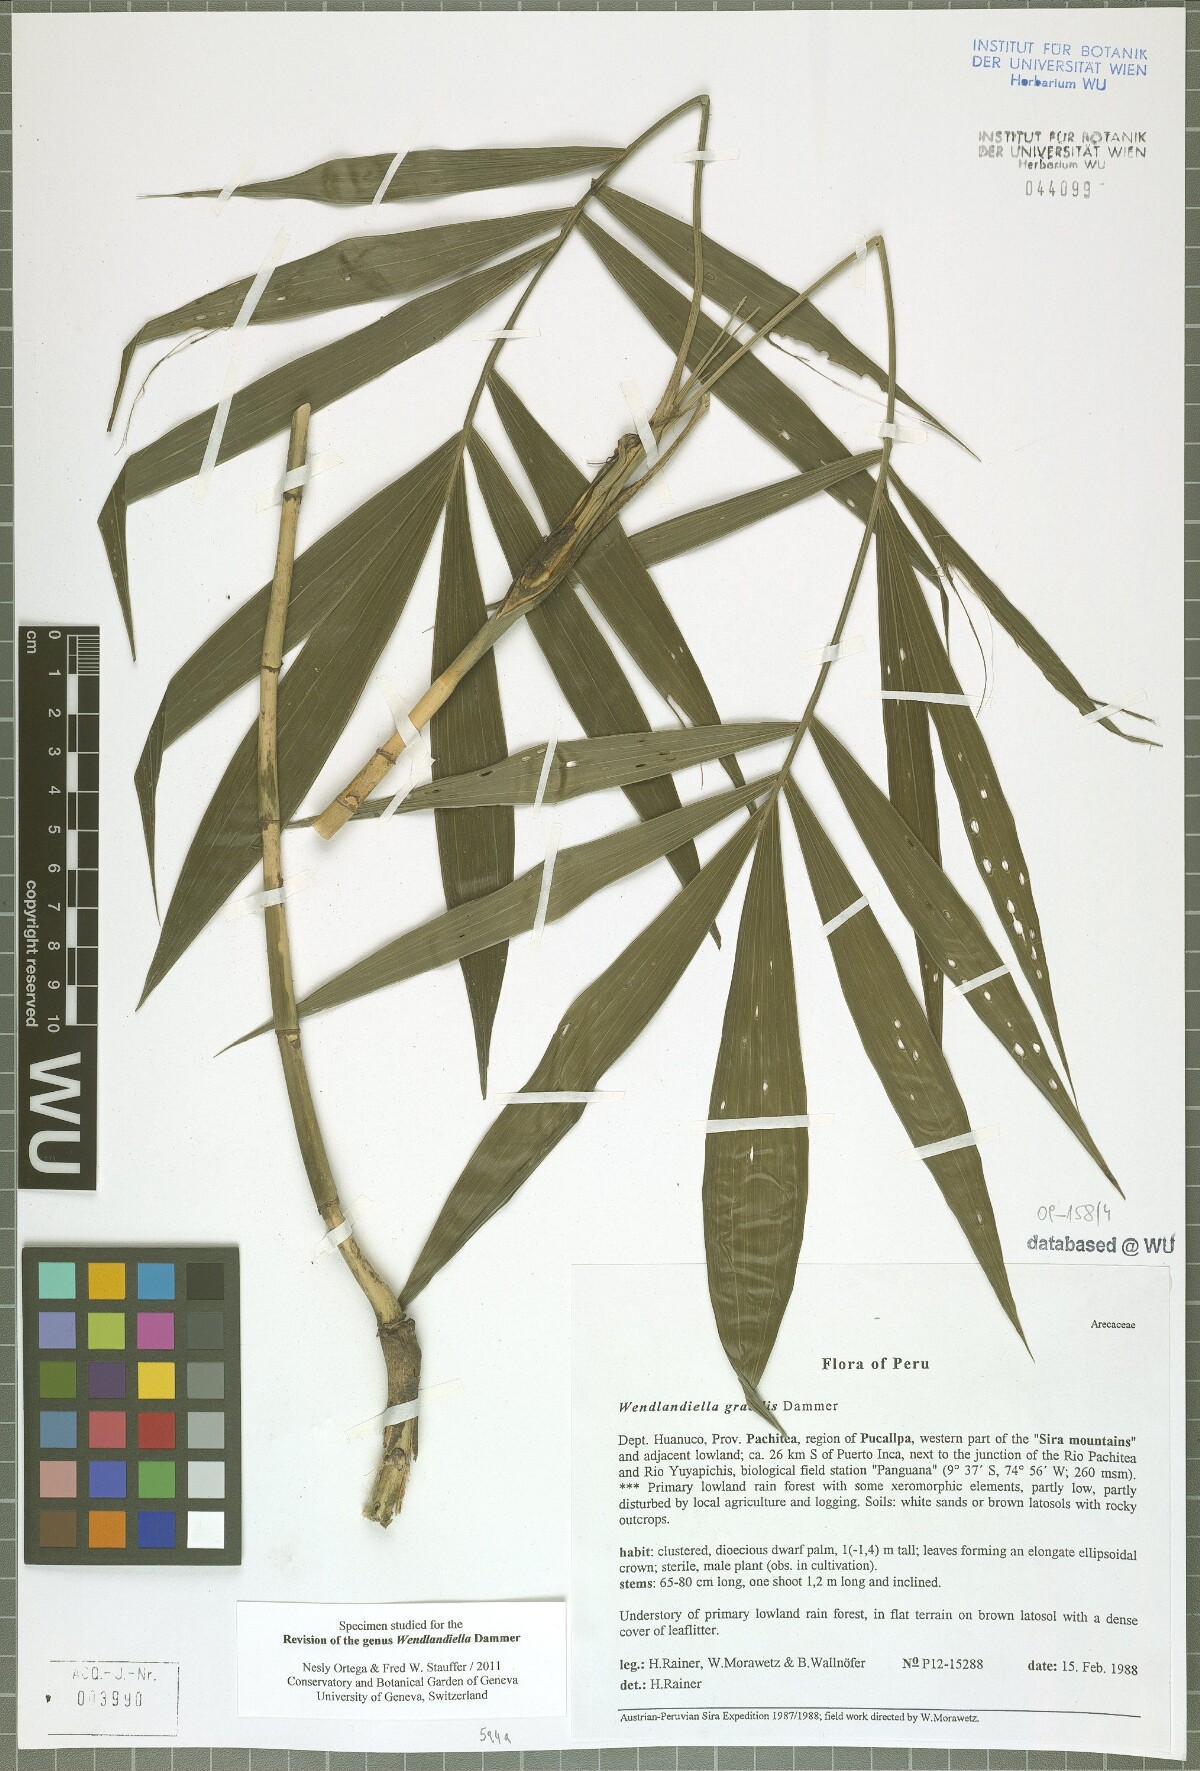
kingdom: Plantae
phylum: Tracheophyta
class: Liliopsida
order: Arecales
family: Arecaceae
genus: Wendlandiella
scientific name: Wendlandiella gracilis
